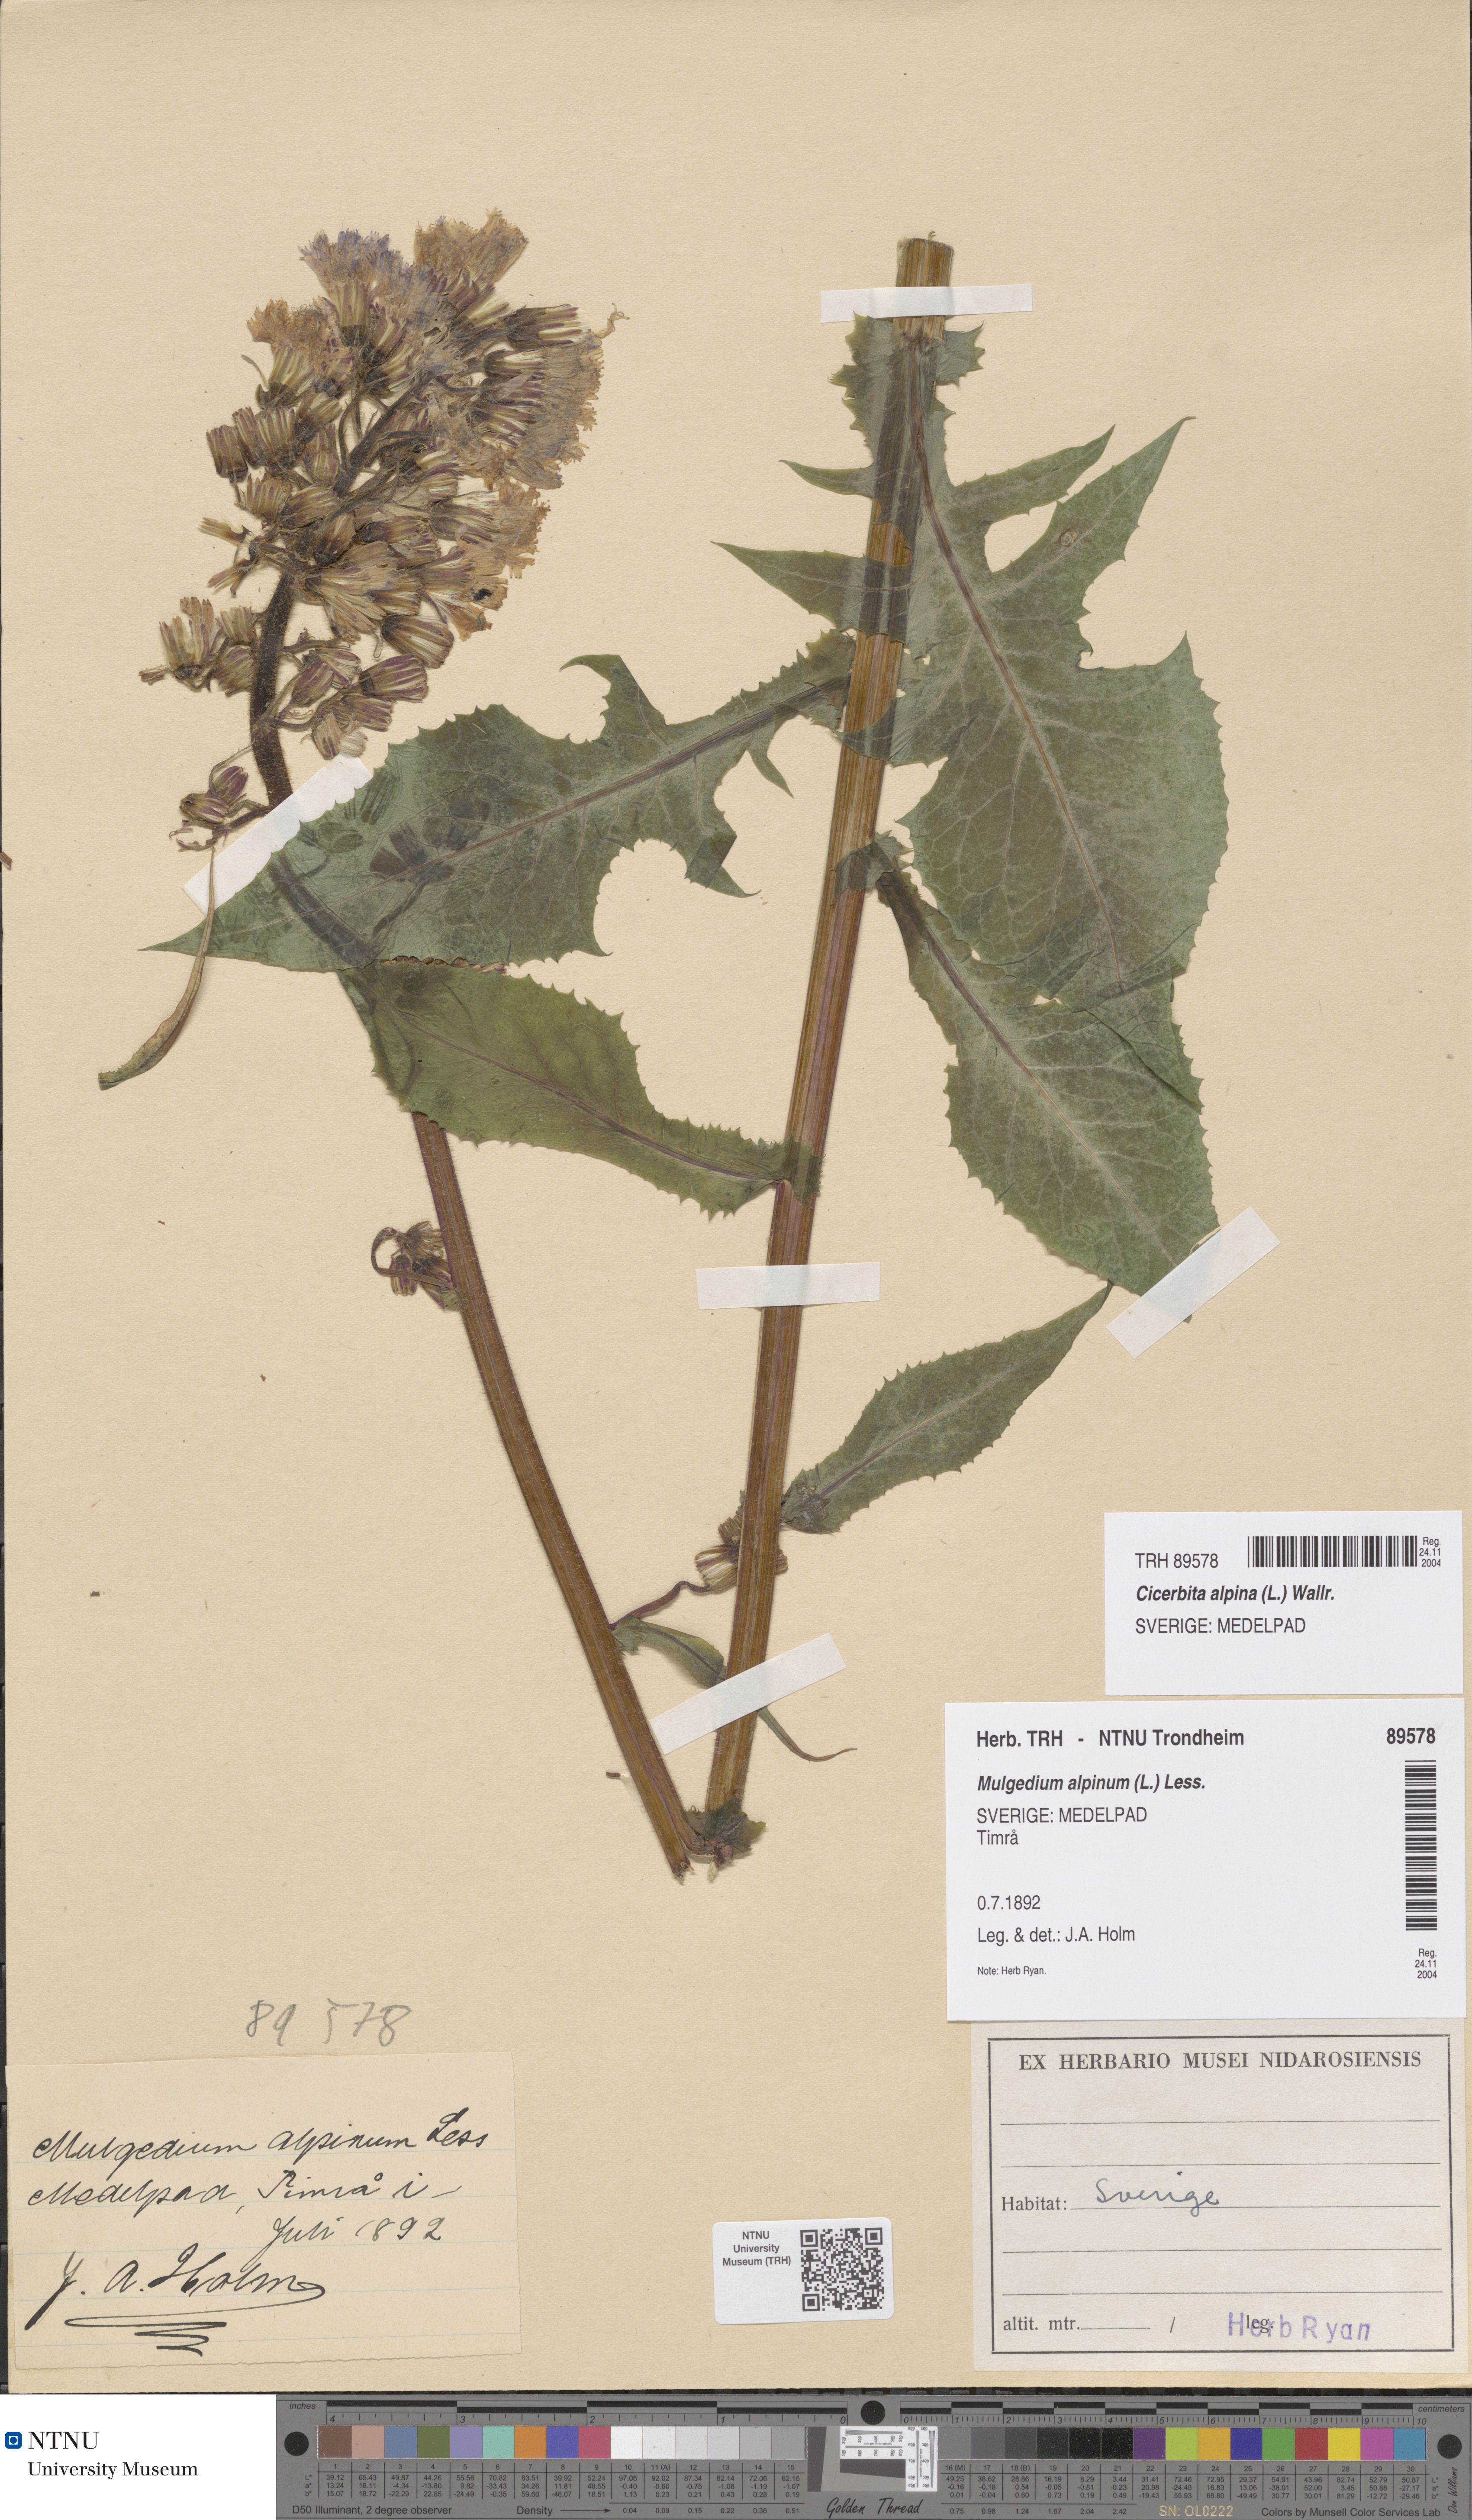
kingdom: Plantae
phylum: Tracheophyta
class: Magnoliopsida
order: Asterales
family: Asteraceae
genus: Cicerbita
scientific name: Cicerbita alpina
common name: Alpine blue-sow-thistle
